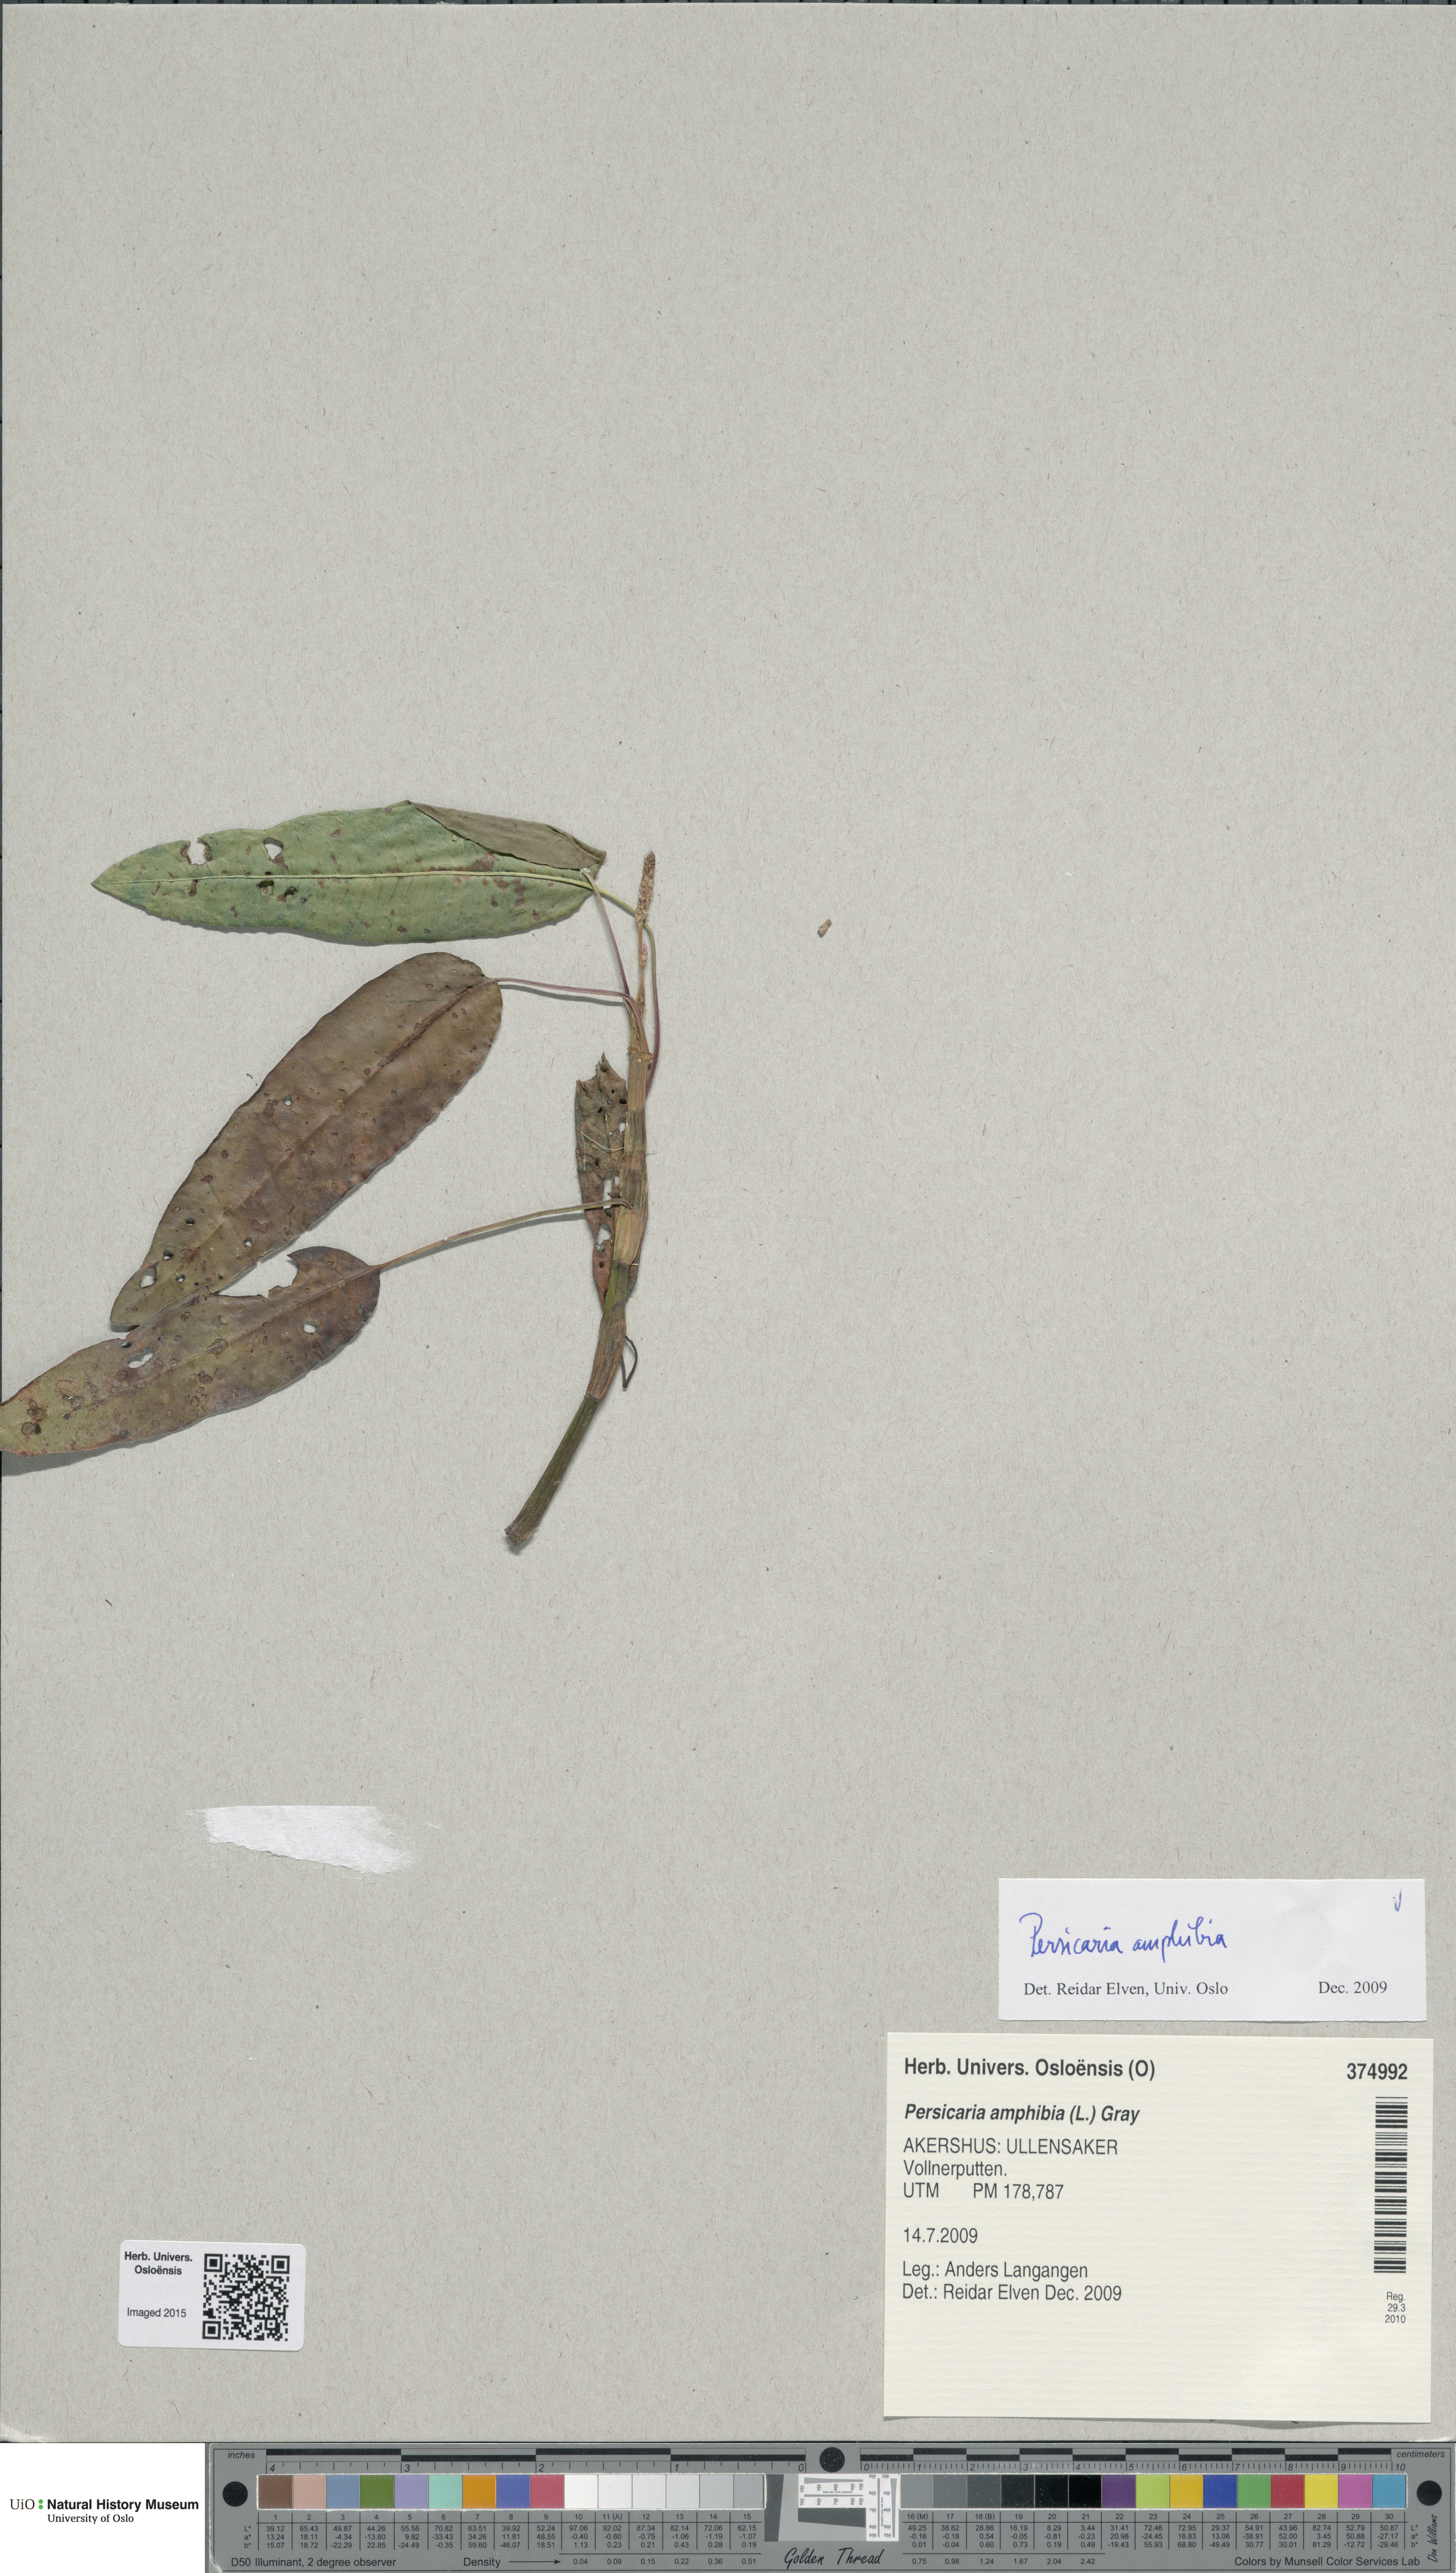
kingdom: Plantae
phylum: Tracheophyta
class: Magnoliopsida
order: Caryophyllales
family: Polygonaceae
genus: Persicaria
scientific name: Persicaria amphibia
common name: Amphibious bistort
